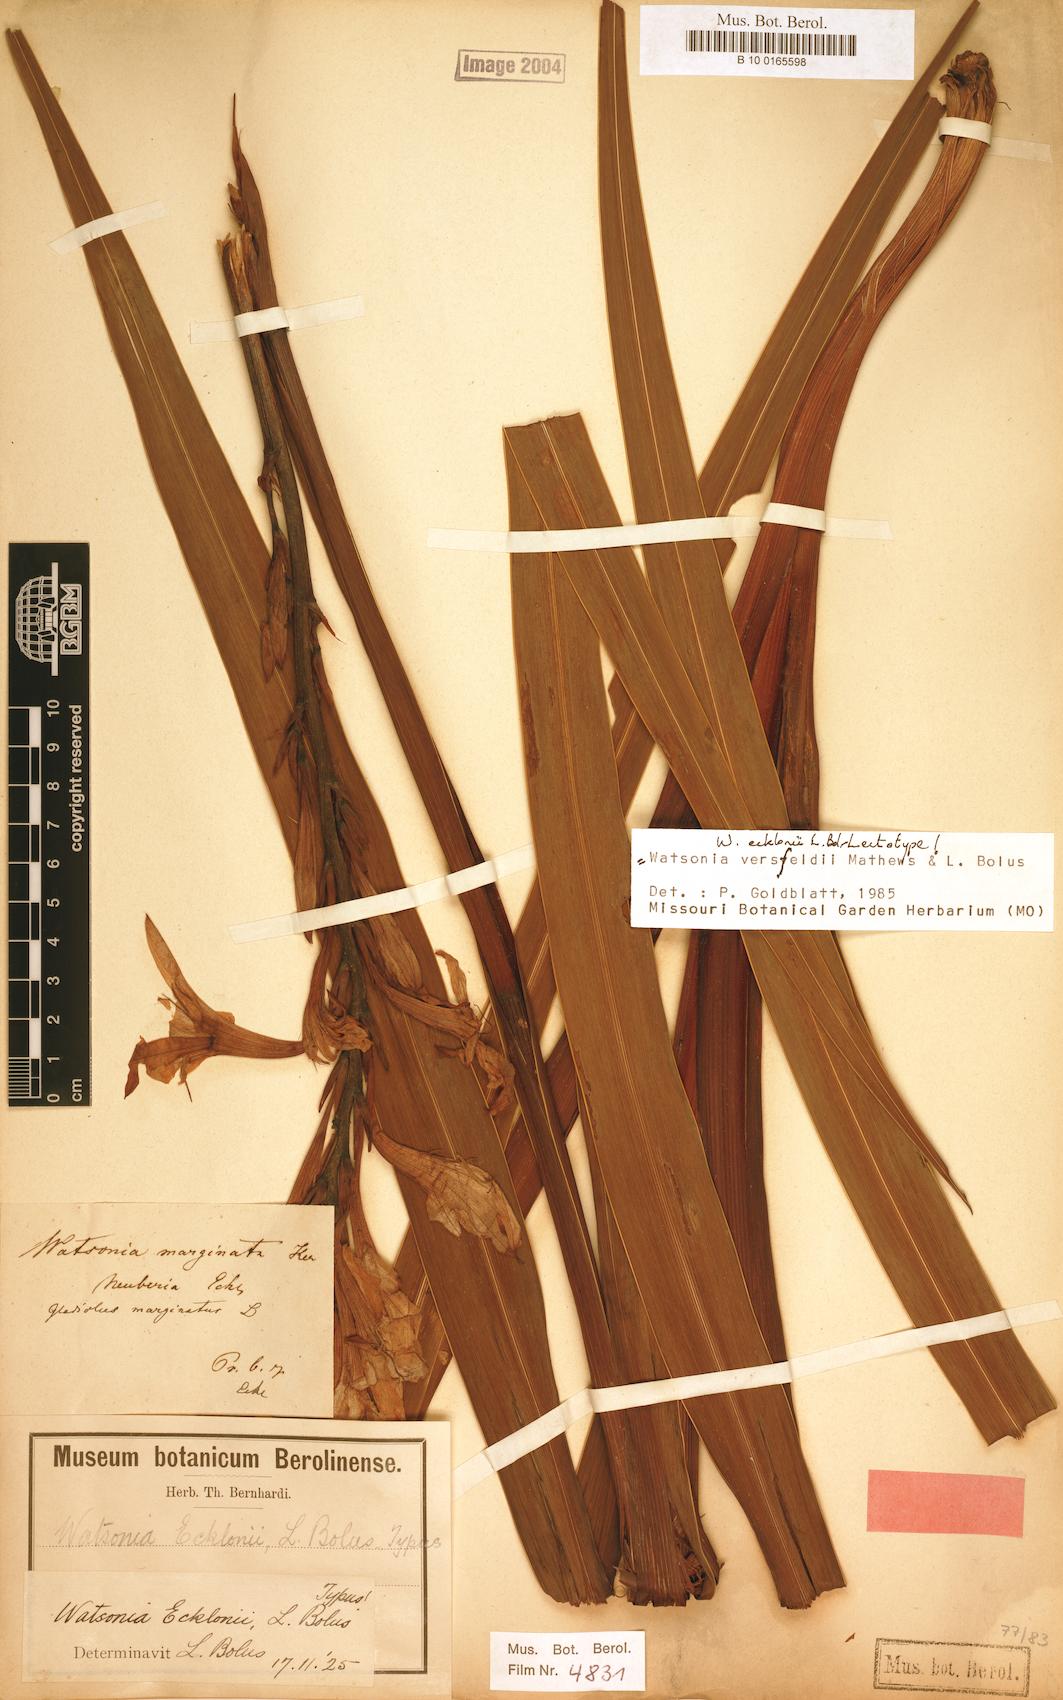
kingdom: Plantae
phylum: Tracheophyta
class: Liliopsida
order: Asparagales
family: Iridaceae
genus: Watsonia
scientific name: Watsonia versfeldii
